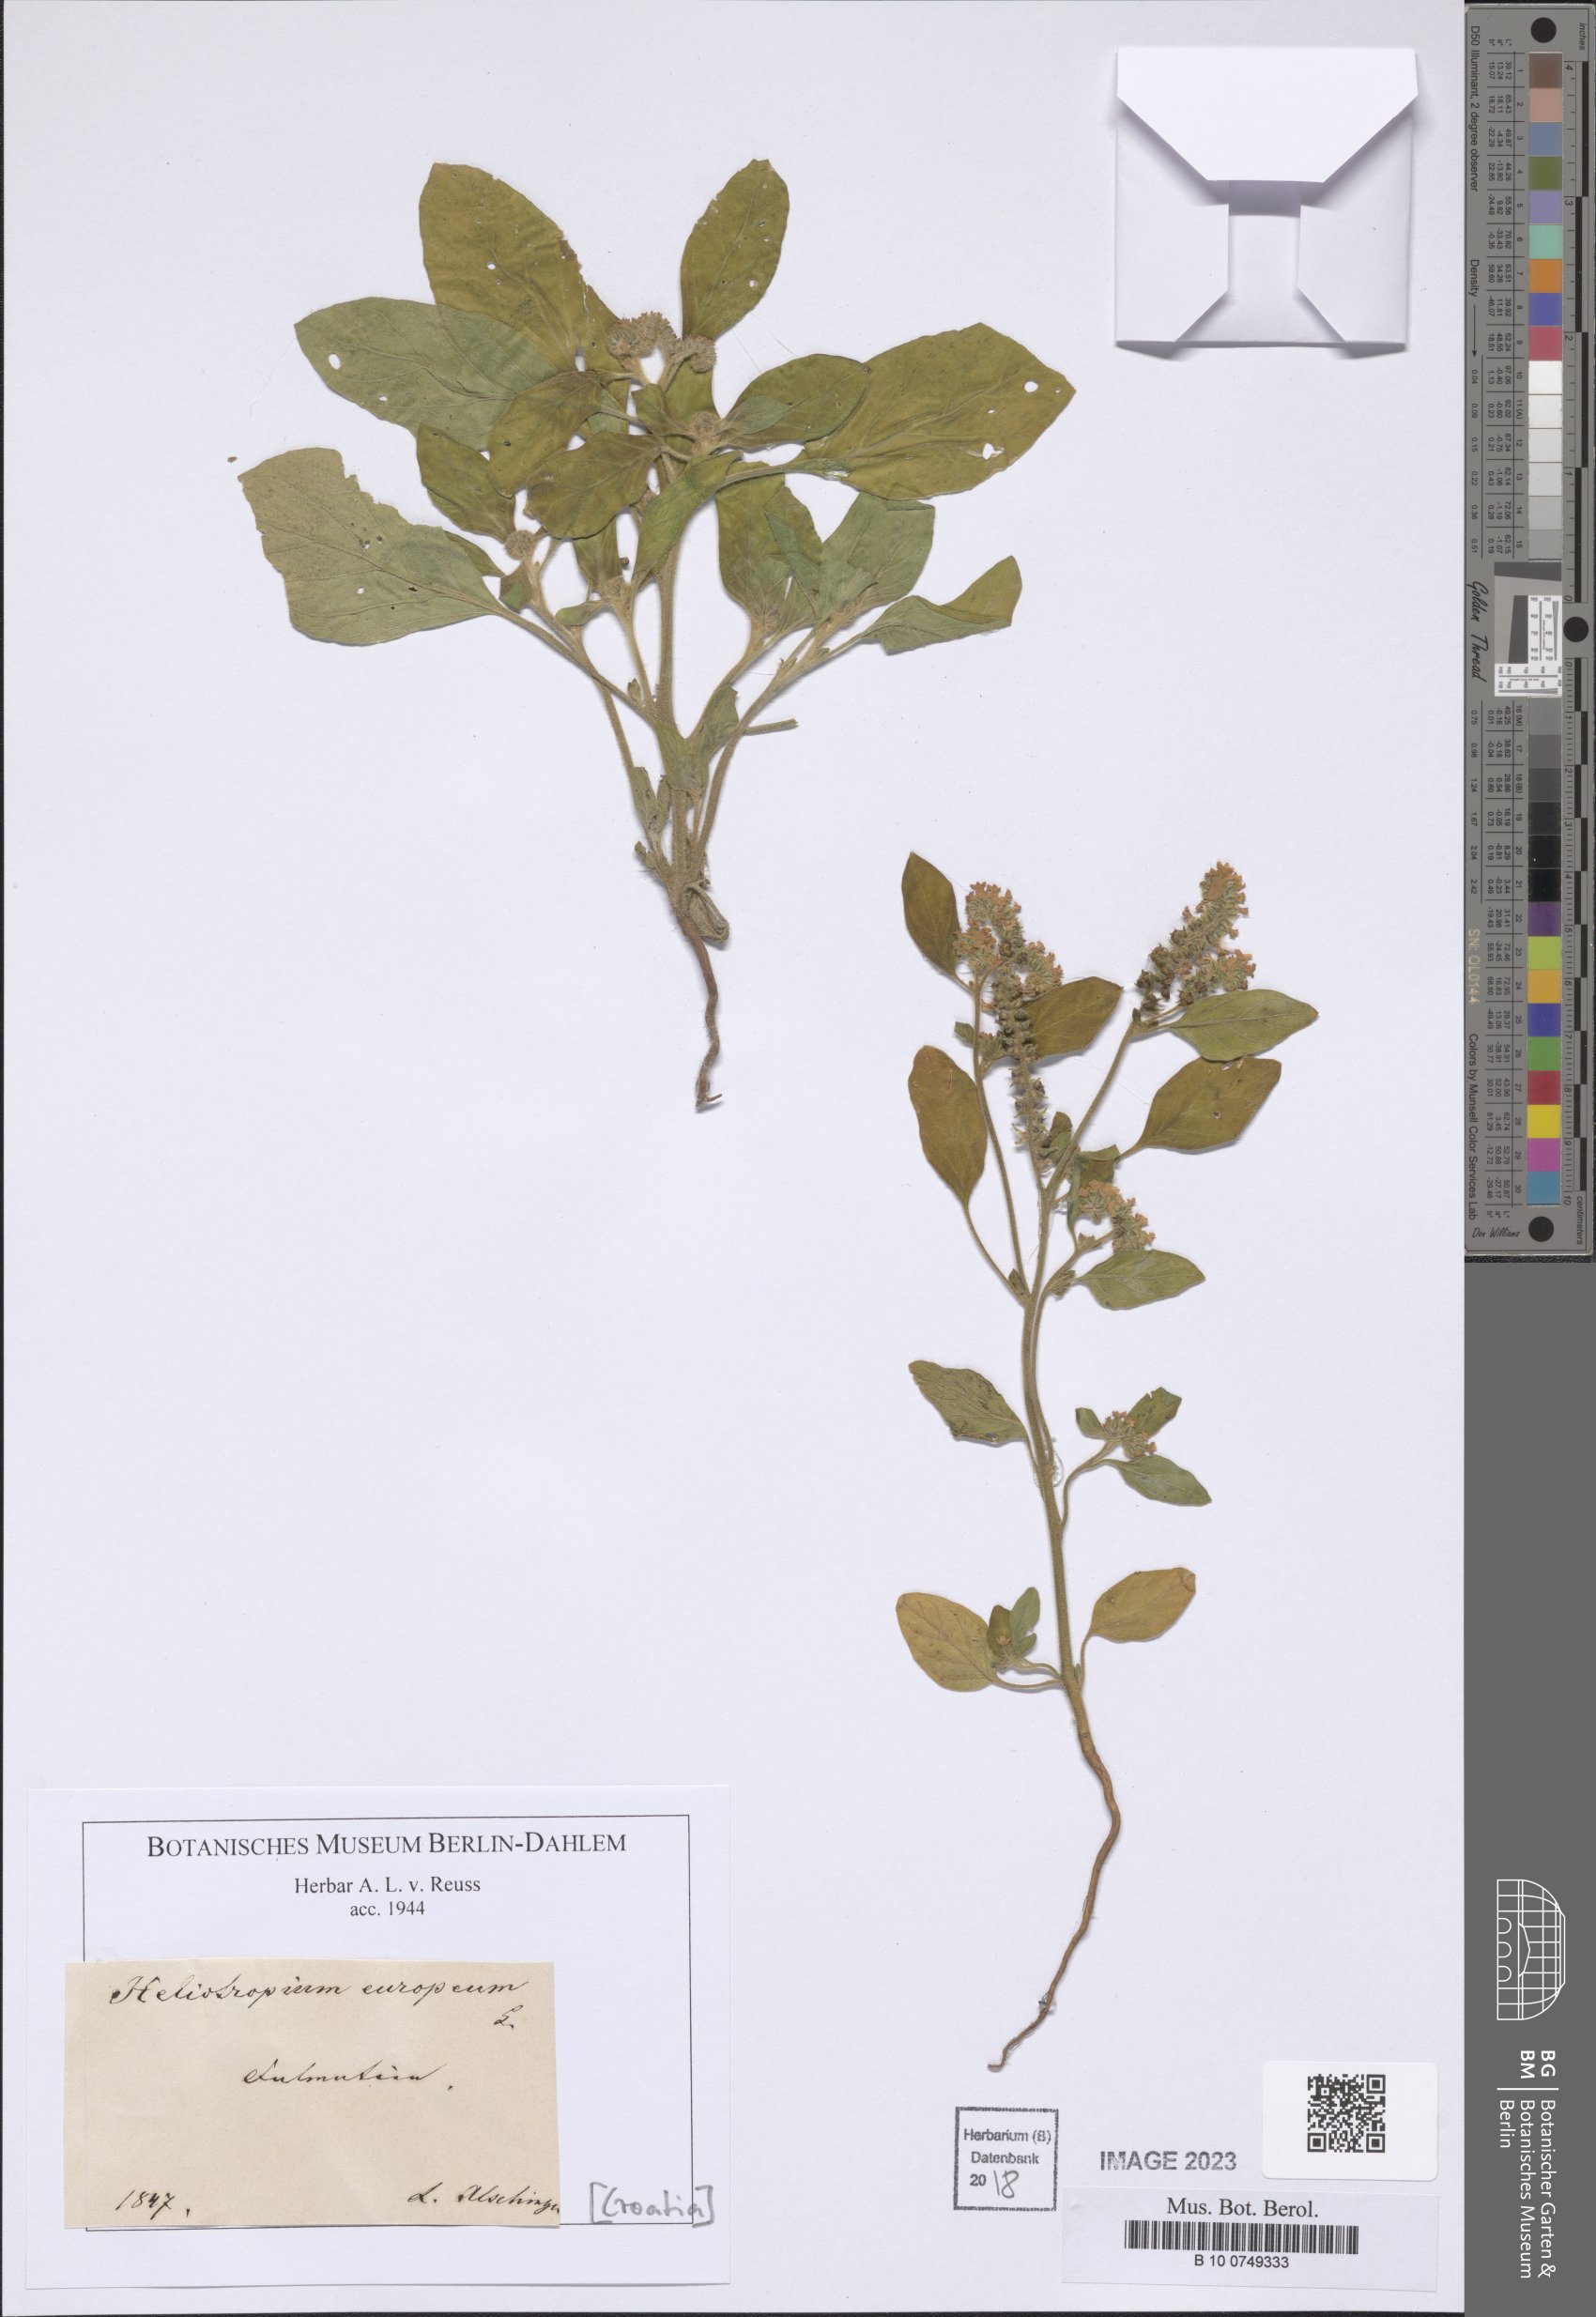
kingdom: Plantae
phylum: Tracheophyta
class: Magnoliopsida
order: Boraginales
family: Heliotropiaceae
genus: Heliotropium
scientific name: Heliotropium europaeum
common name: European heliotrope
